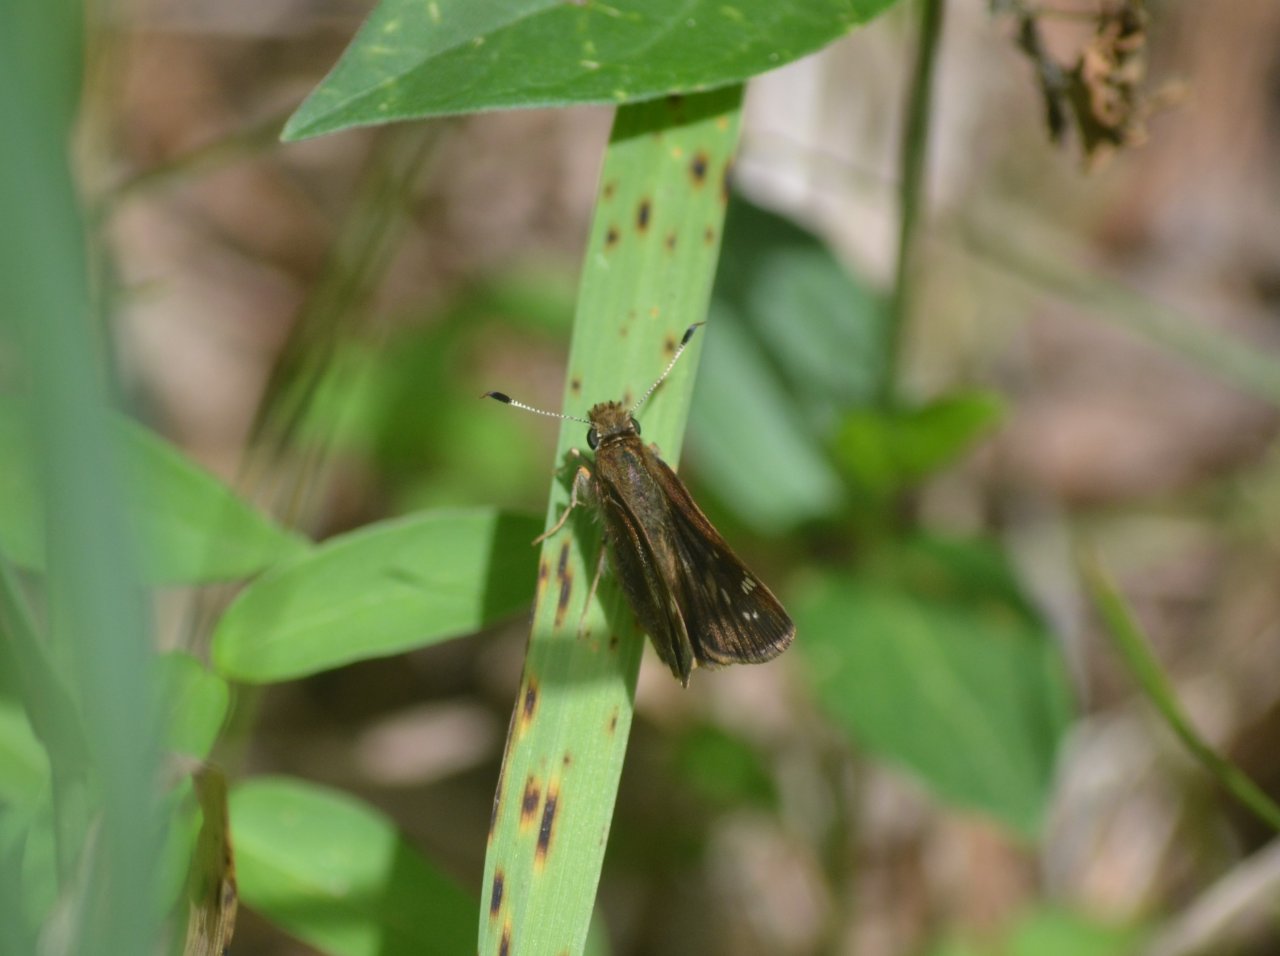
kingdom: Animalia
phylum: Arthropoda
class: Insecta
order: Lepidoptera
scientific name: Lepidoptera
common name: Butterflies
